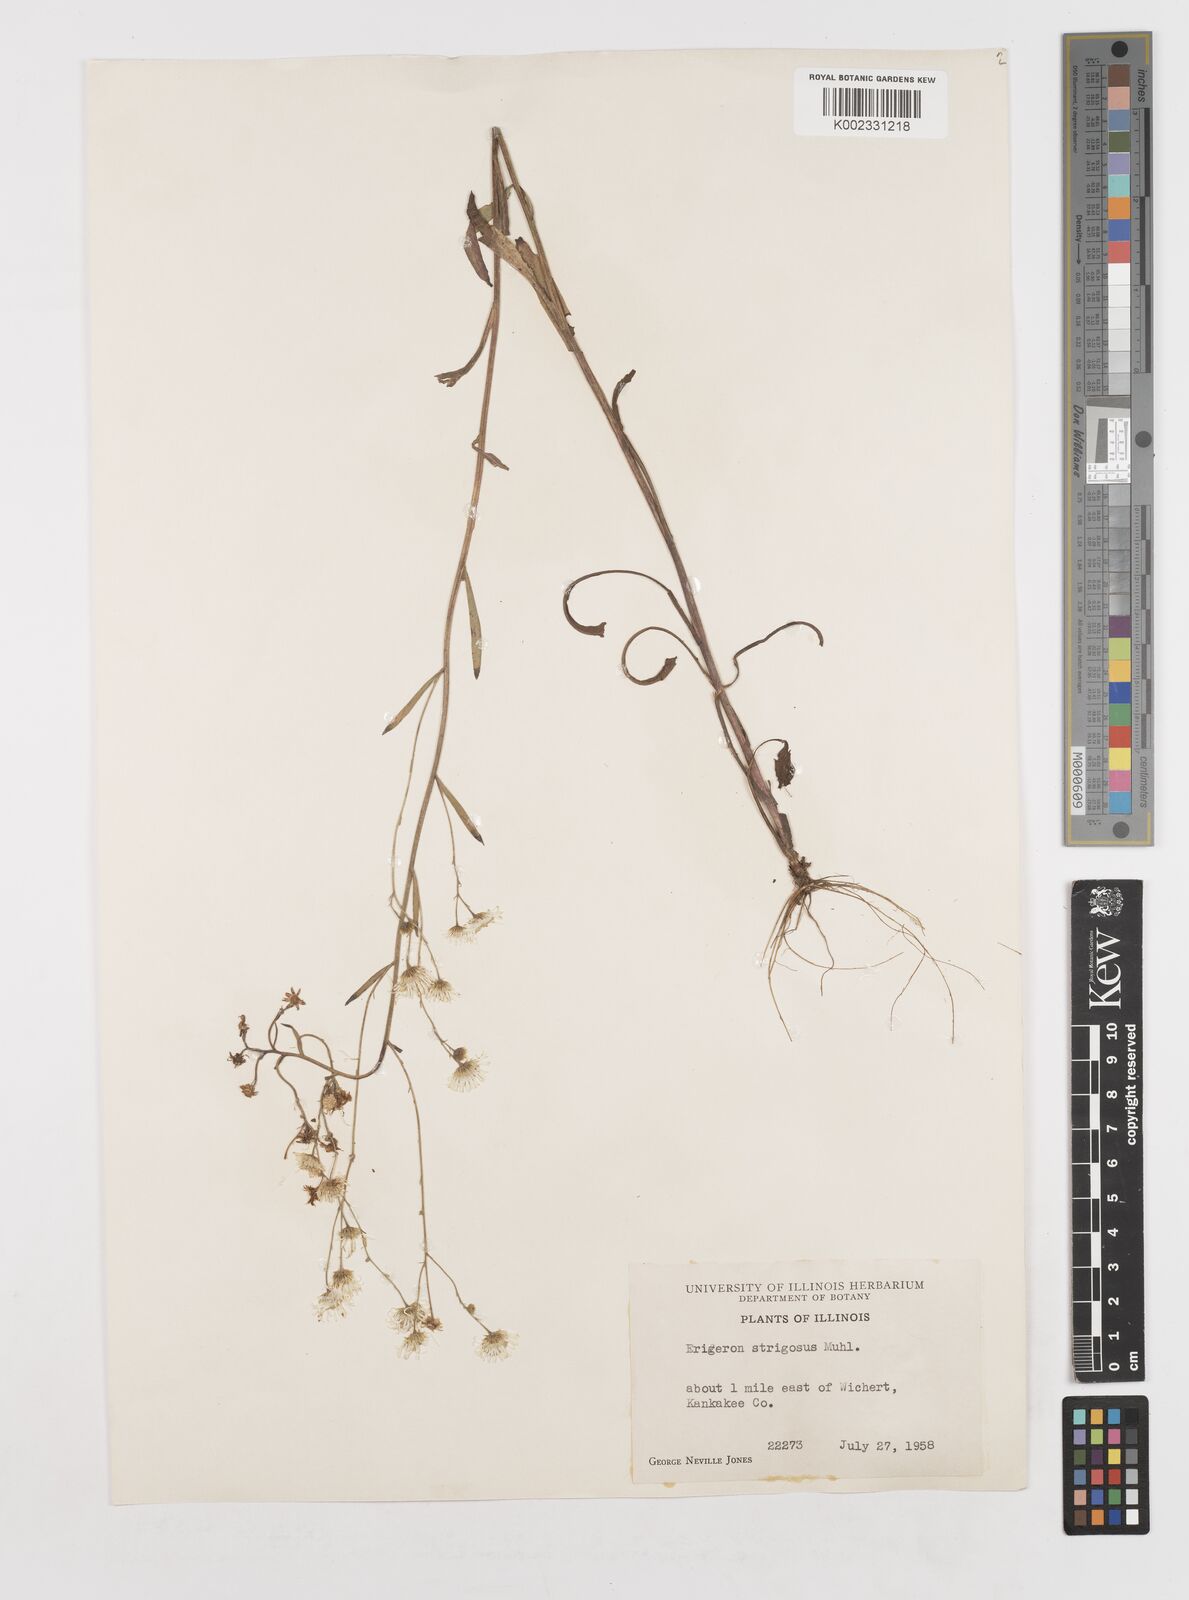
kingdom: Plantae
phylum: Tracheophyta
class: Magnoliopsida
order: Asterales
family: Asteraceae
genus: Erigeron
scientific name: Erigeron strigosus
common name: Common eastern fleabane
